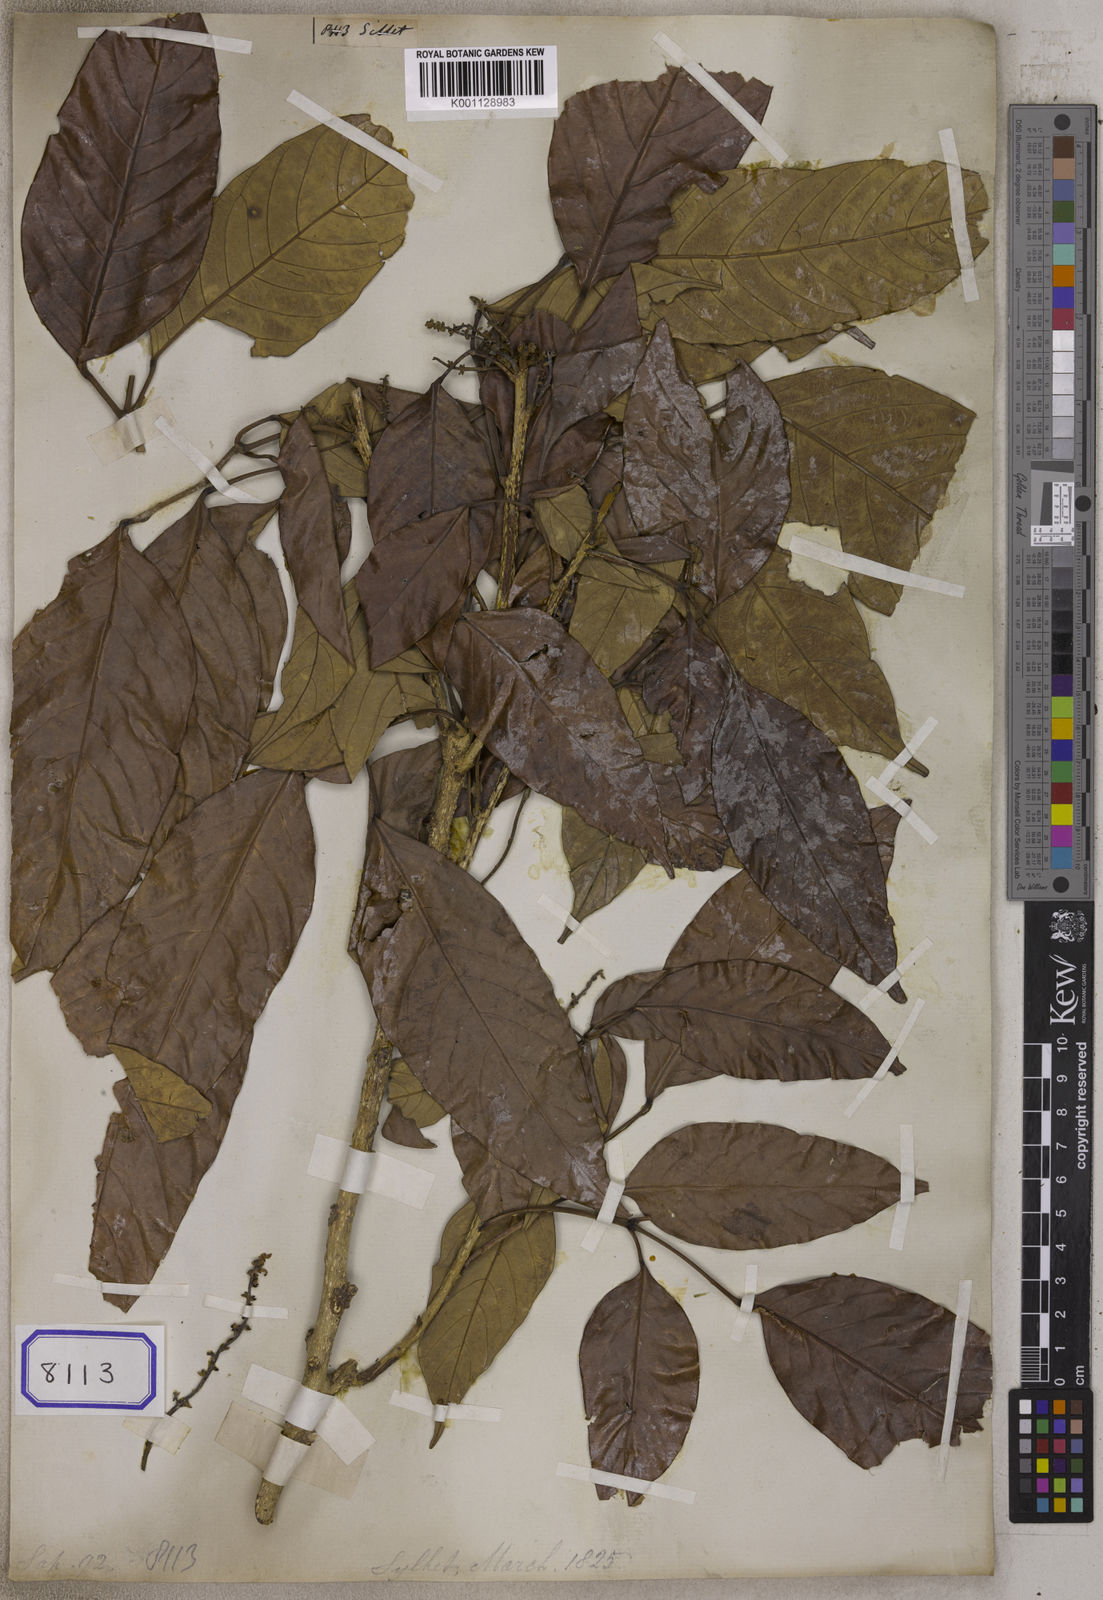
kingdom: Plantae
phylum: Tracheophyta
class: Magnoliopsida
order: Sapindales
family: Sapindaceae
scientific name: Sapindaceae
